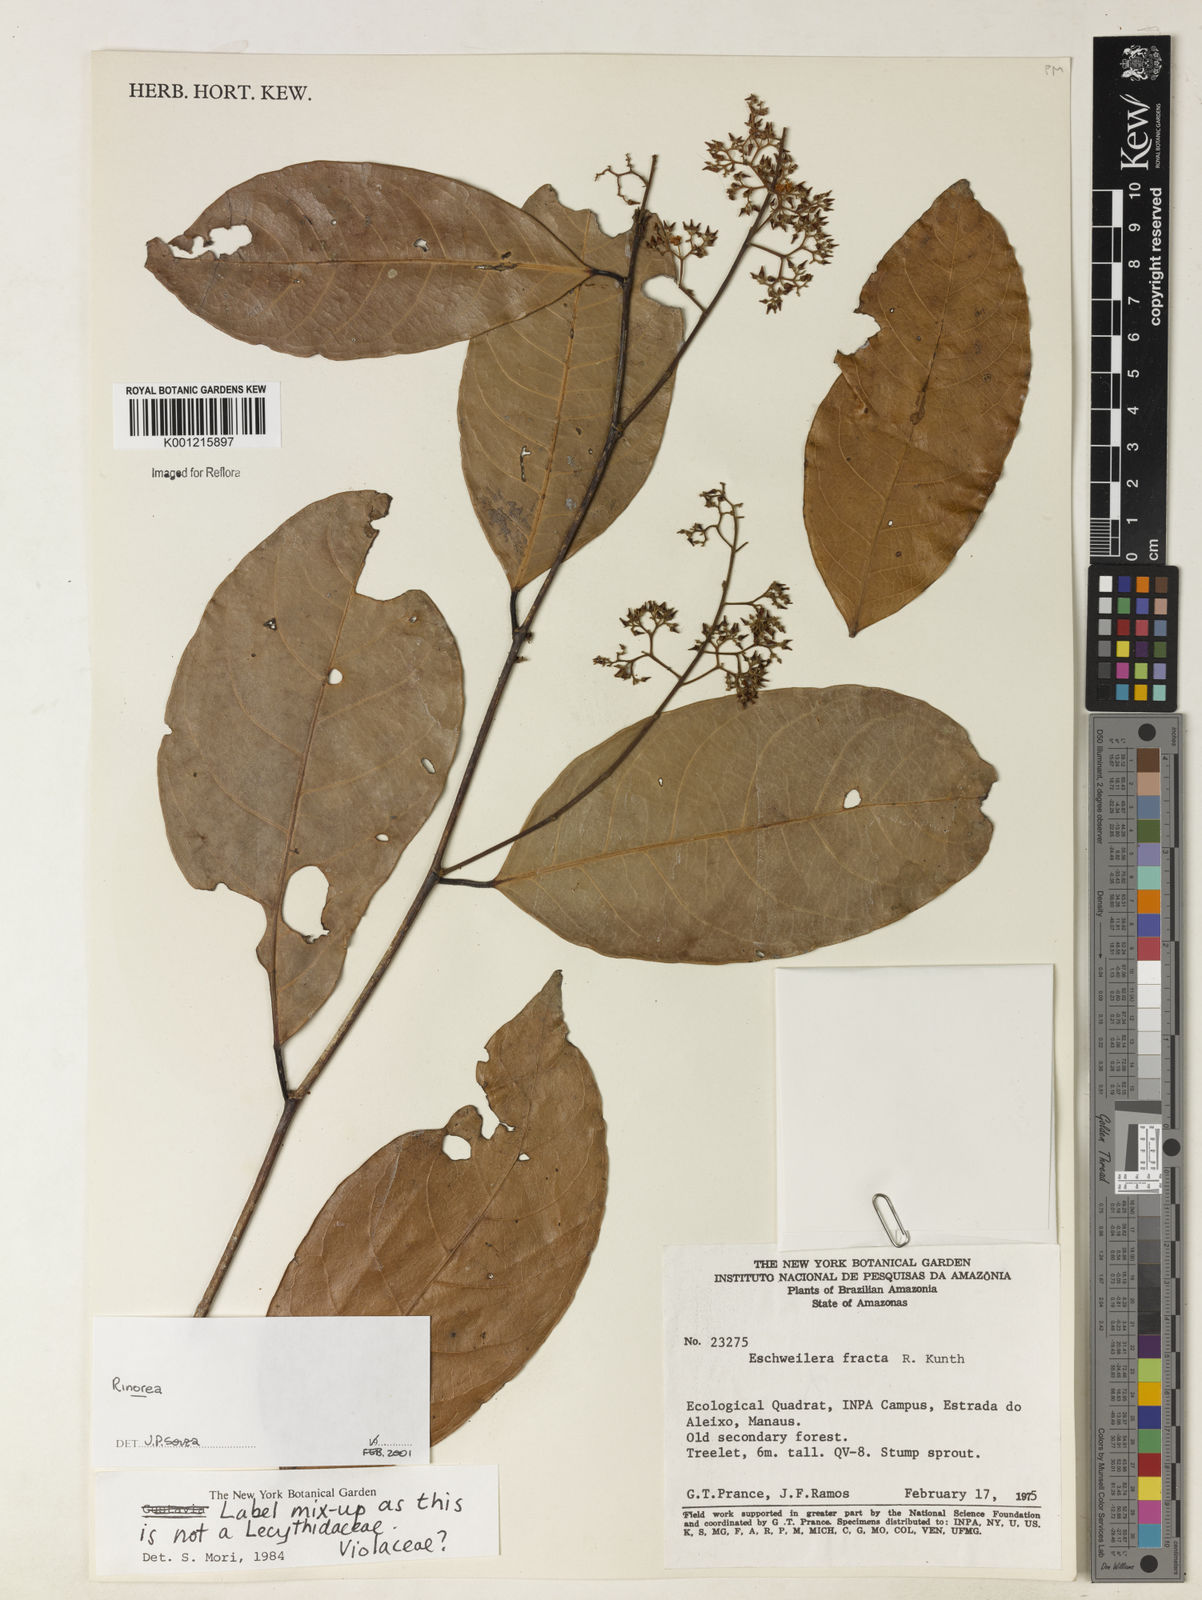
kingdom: Plantae
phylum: Tracheophyta
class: Magnoliopsida
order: Malpighiales
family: Violaceae
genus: Rinorea
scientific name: Rinorea
